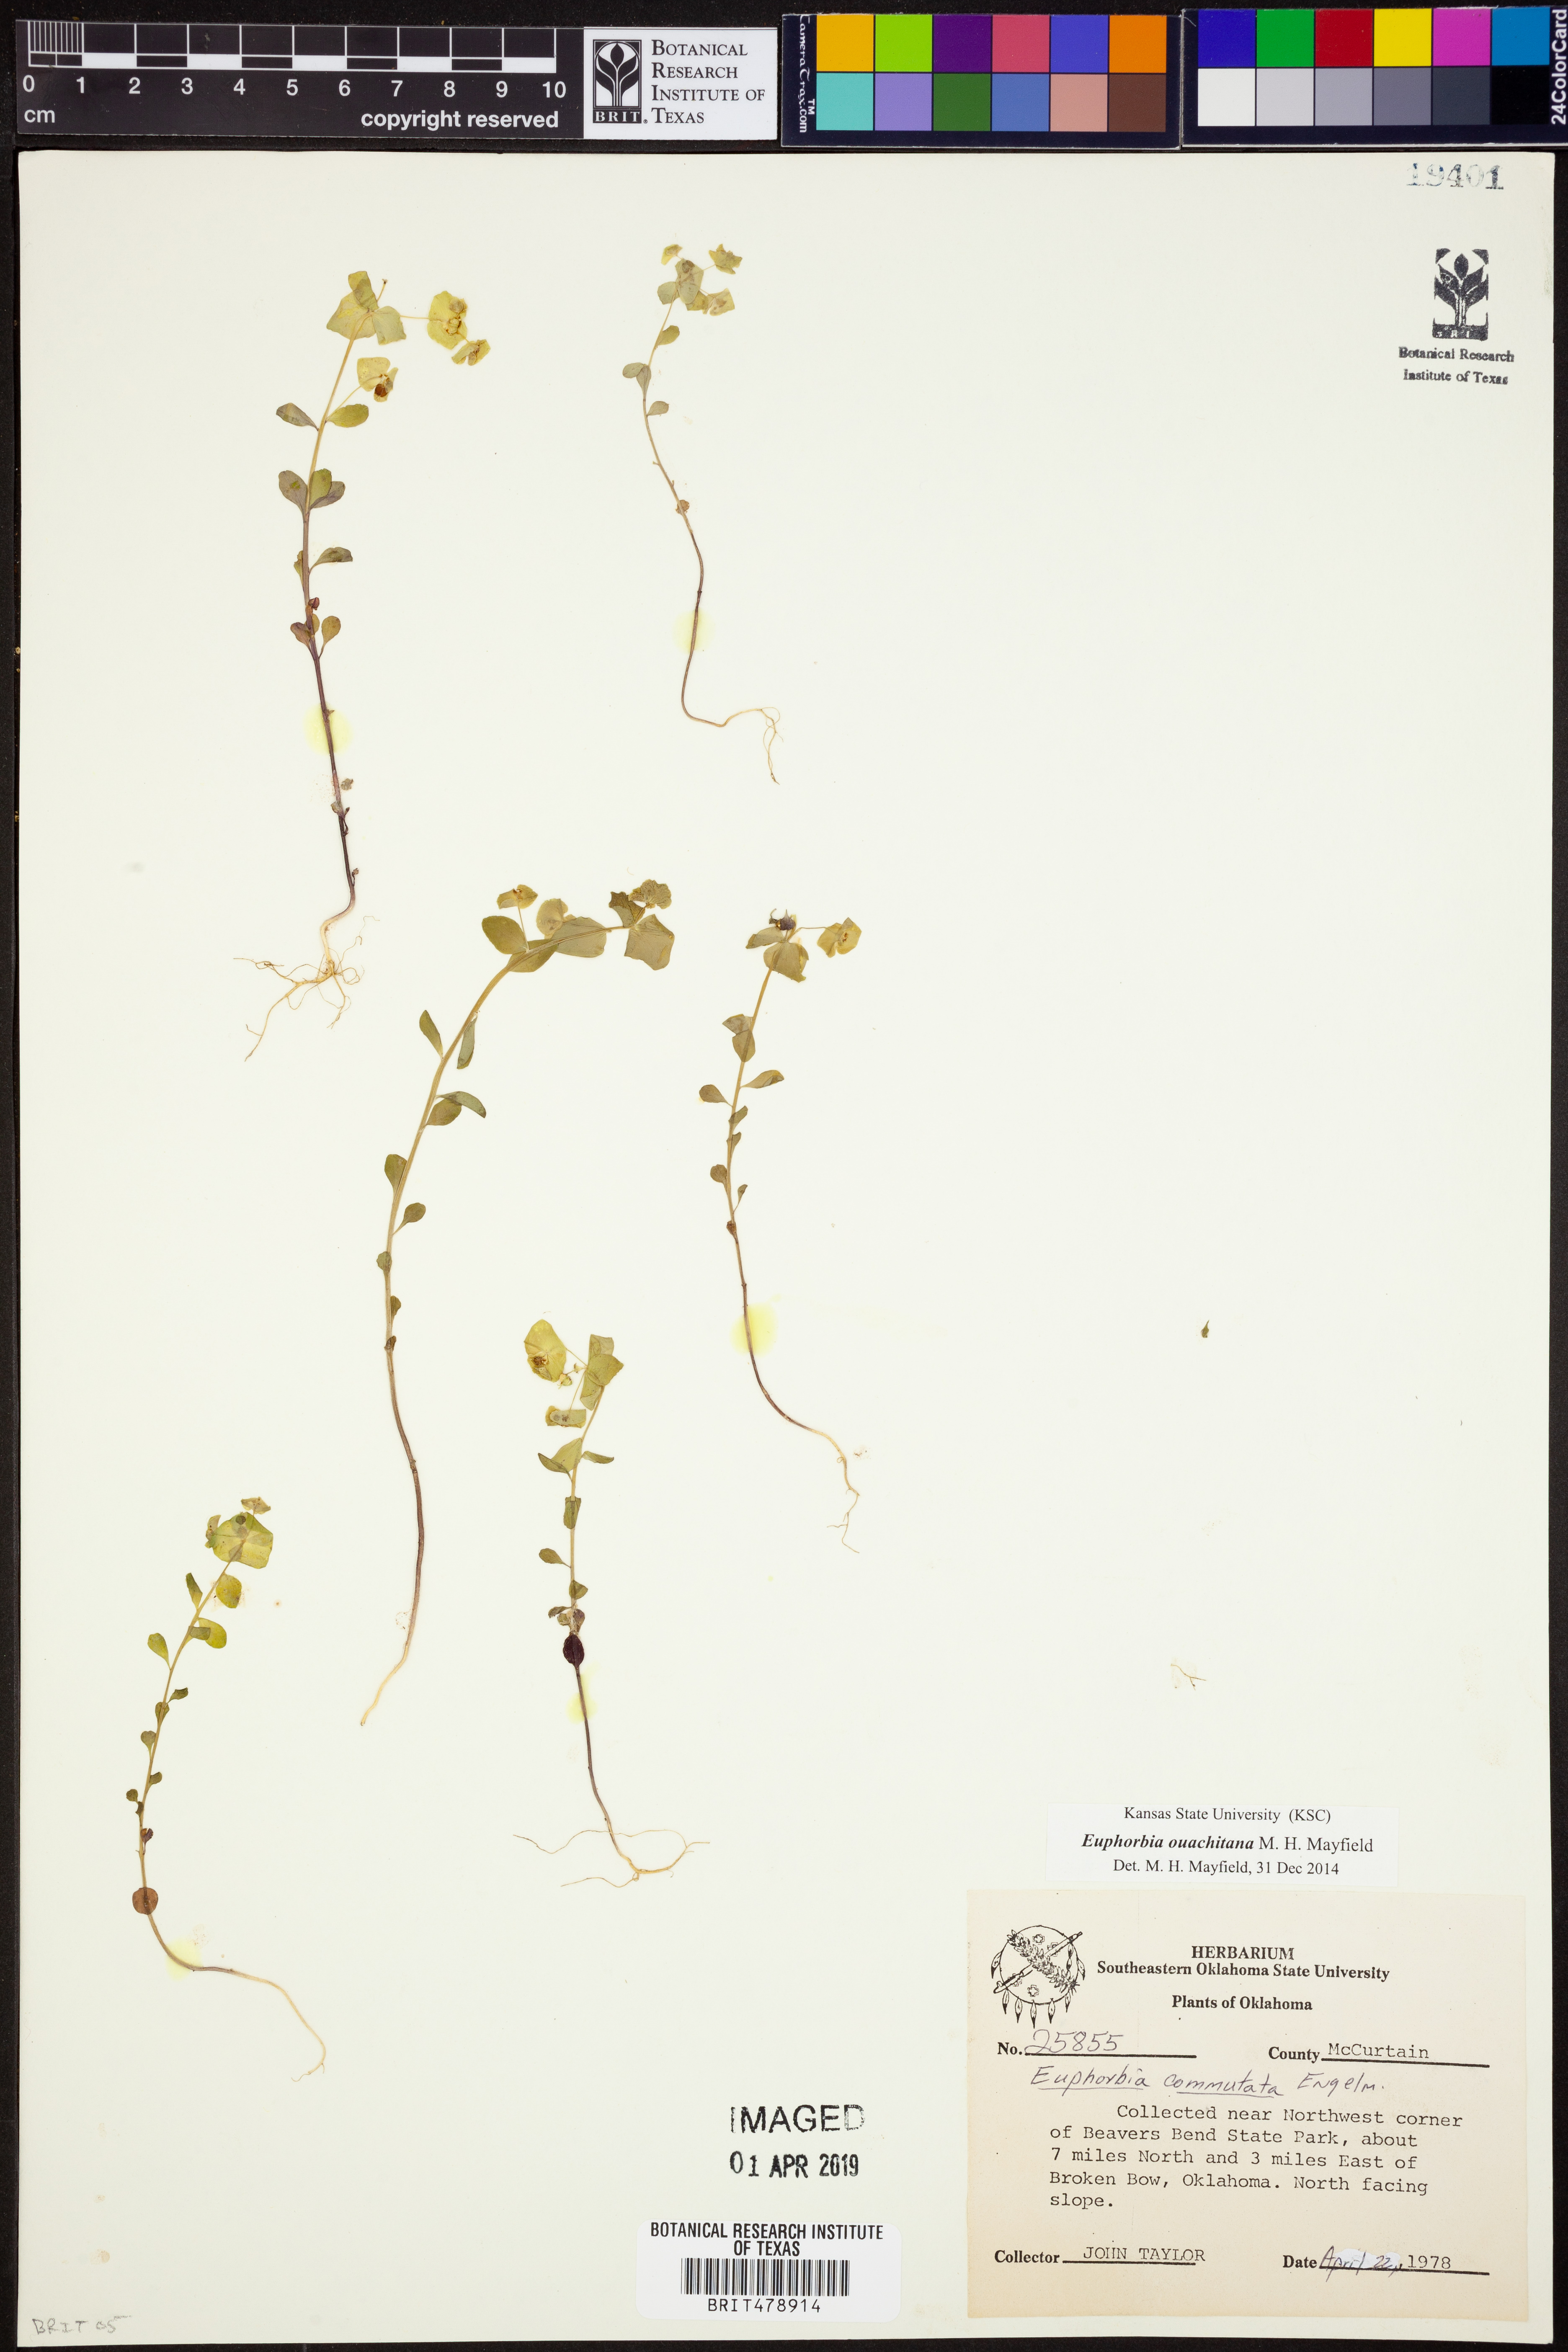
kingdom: Plantae
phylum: Tracheophyta
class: Magnoliopsida
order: Malpighiales
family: Euphorbiaceae
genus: Euphorbia
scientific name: Euphorbia ouachitana
